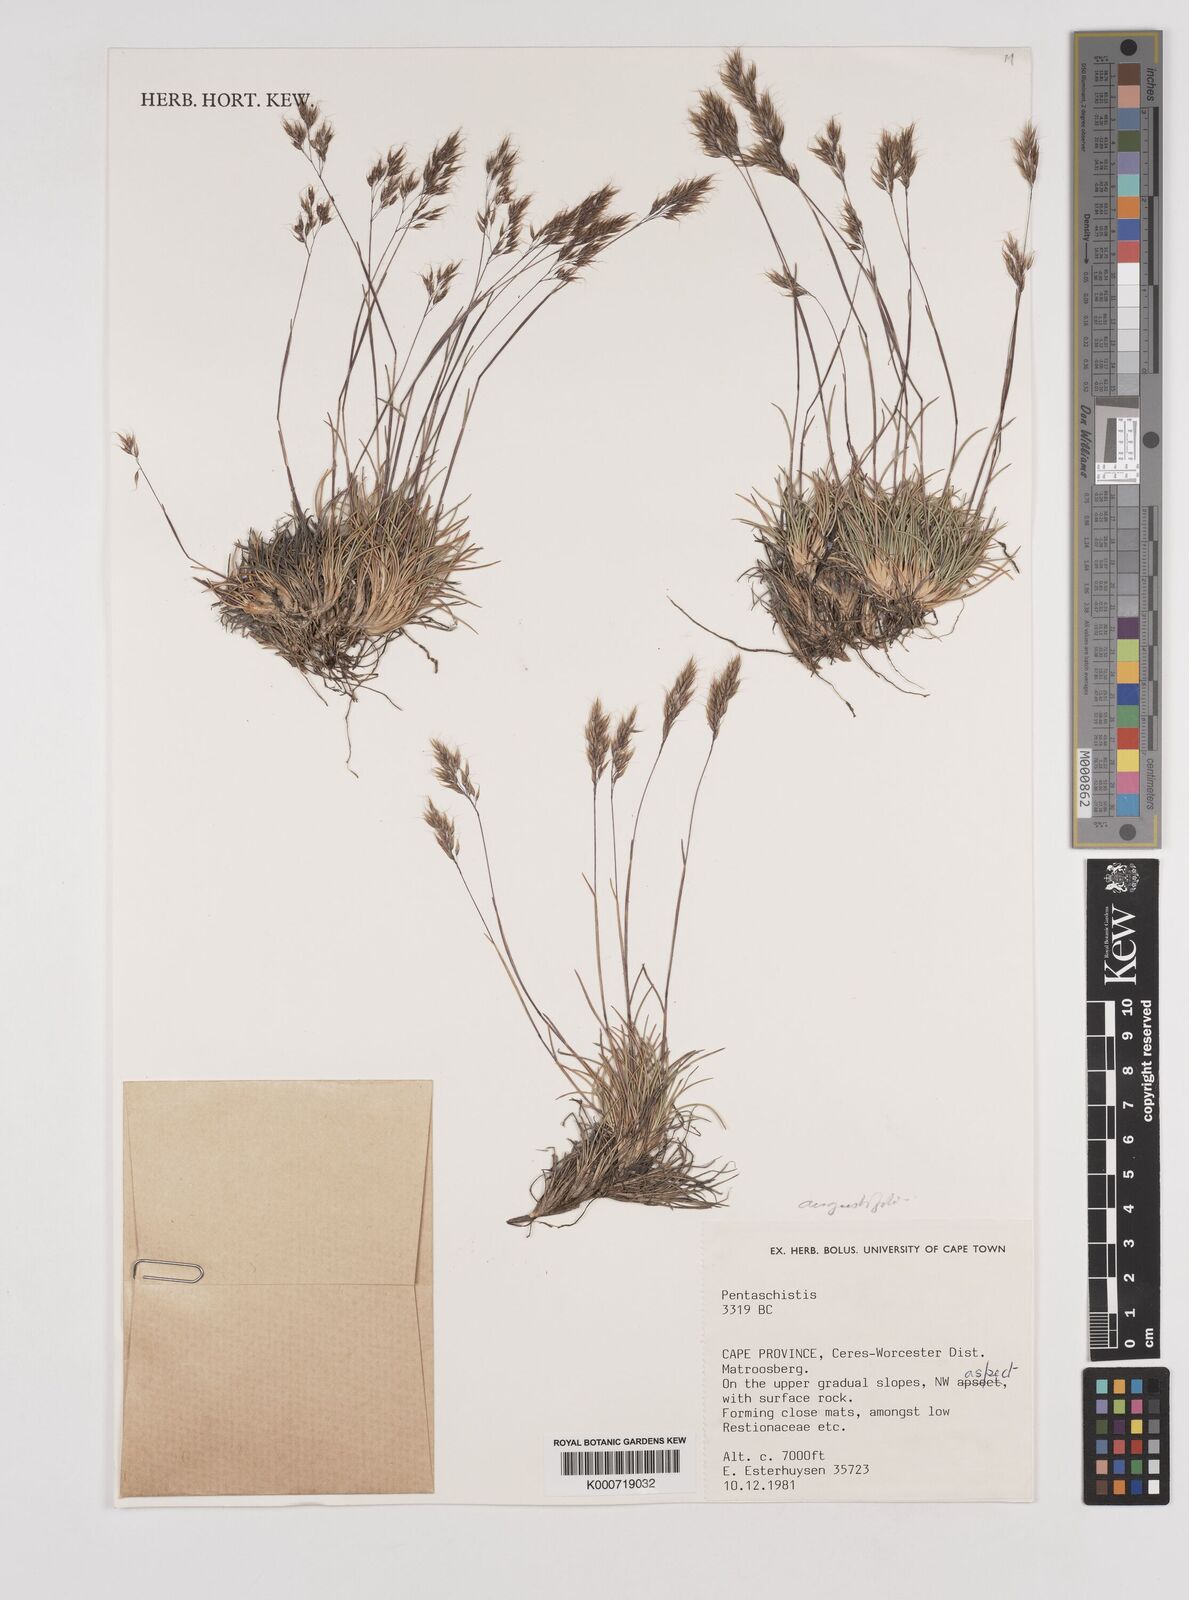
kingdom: Plantae
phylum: Tracheophyta
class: Liliopsida
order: Poales
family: Poaceae
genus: Pentameris
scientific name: Pentameris pallida
